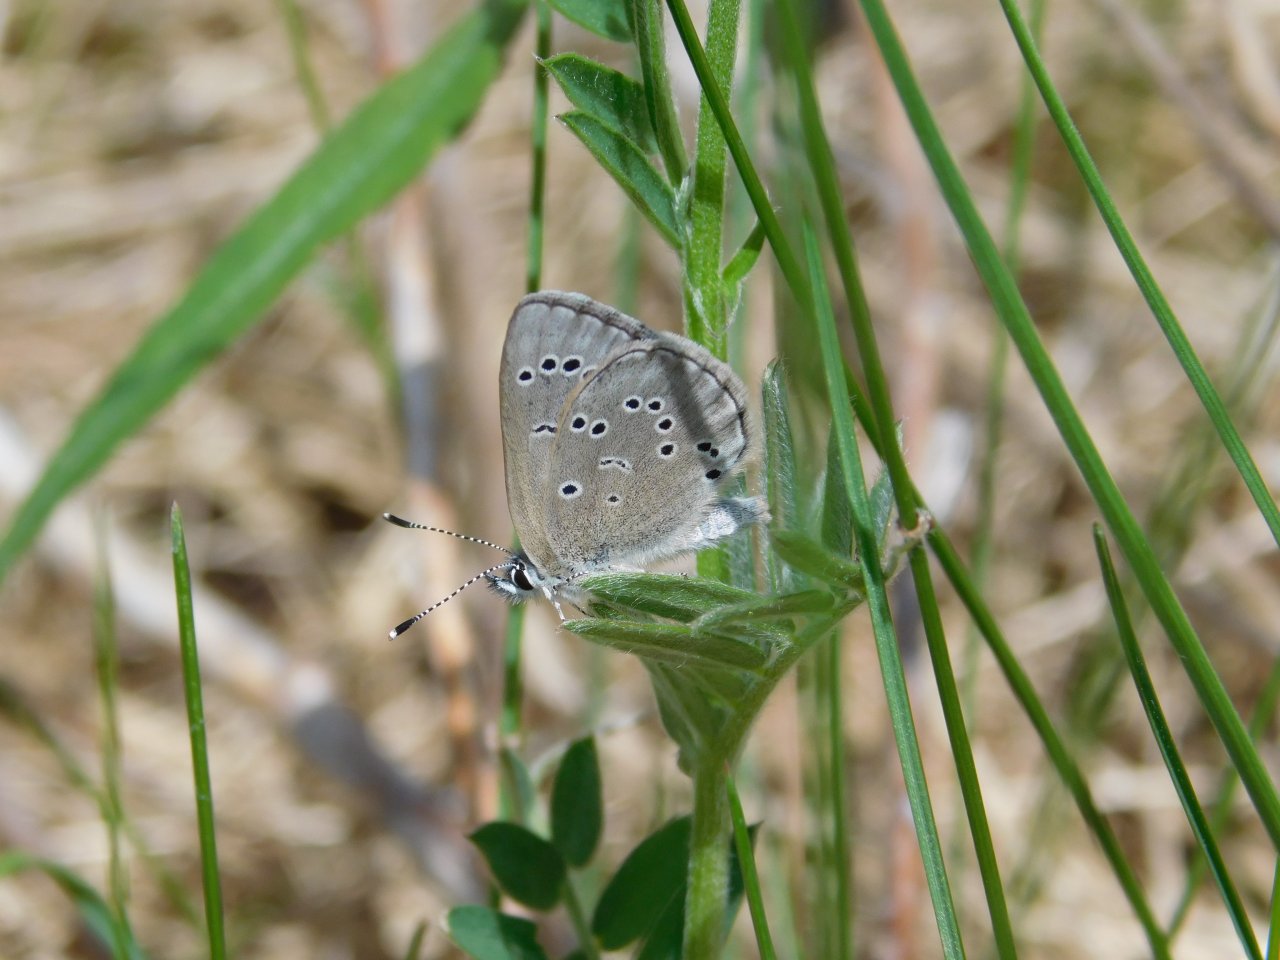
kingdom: Animalia
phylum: Arthropoda
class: Insecta
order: Lepidoptera
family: Lycaenidae
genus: Glaucopsyche
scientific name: Glaucopsyche lygdamus
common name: Silvery Blue
